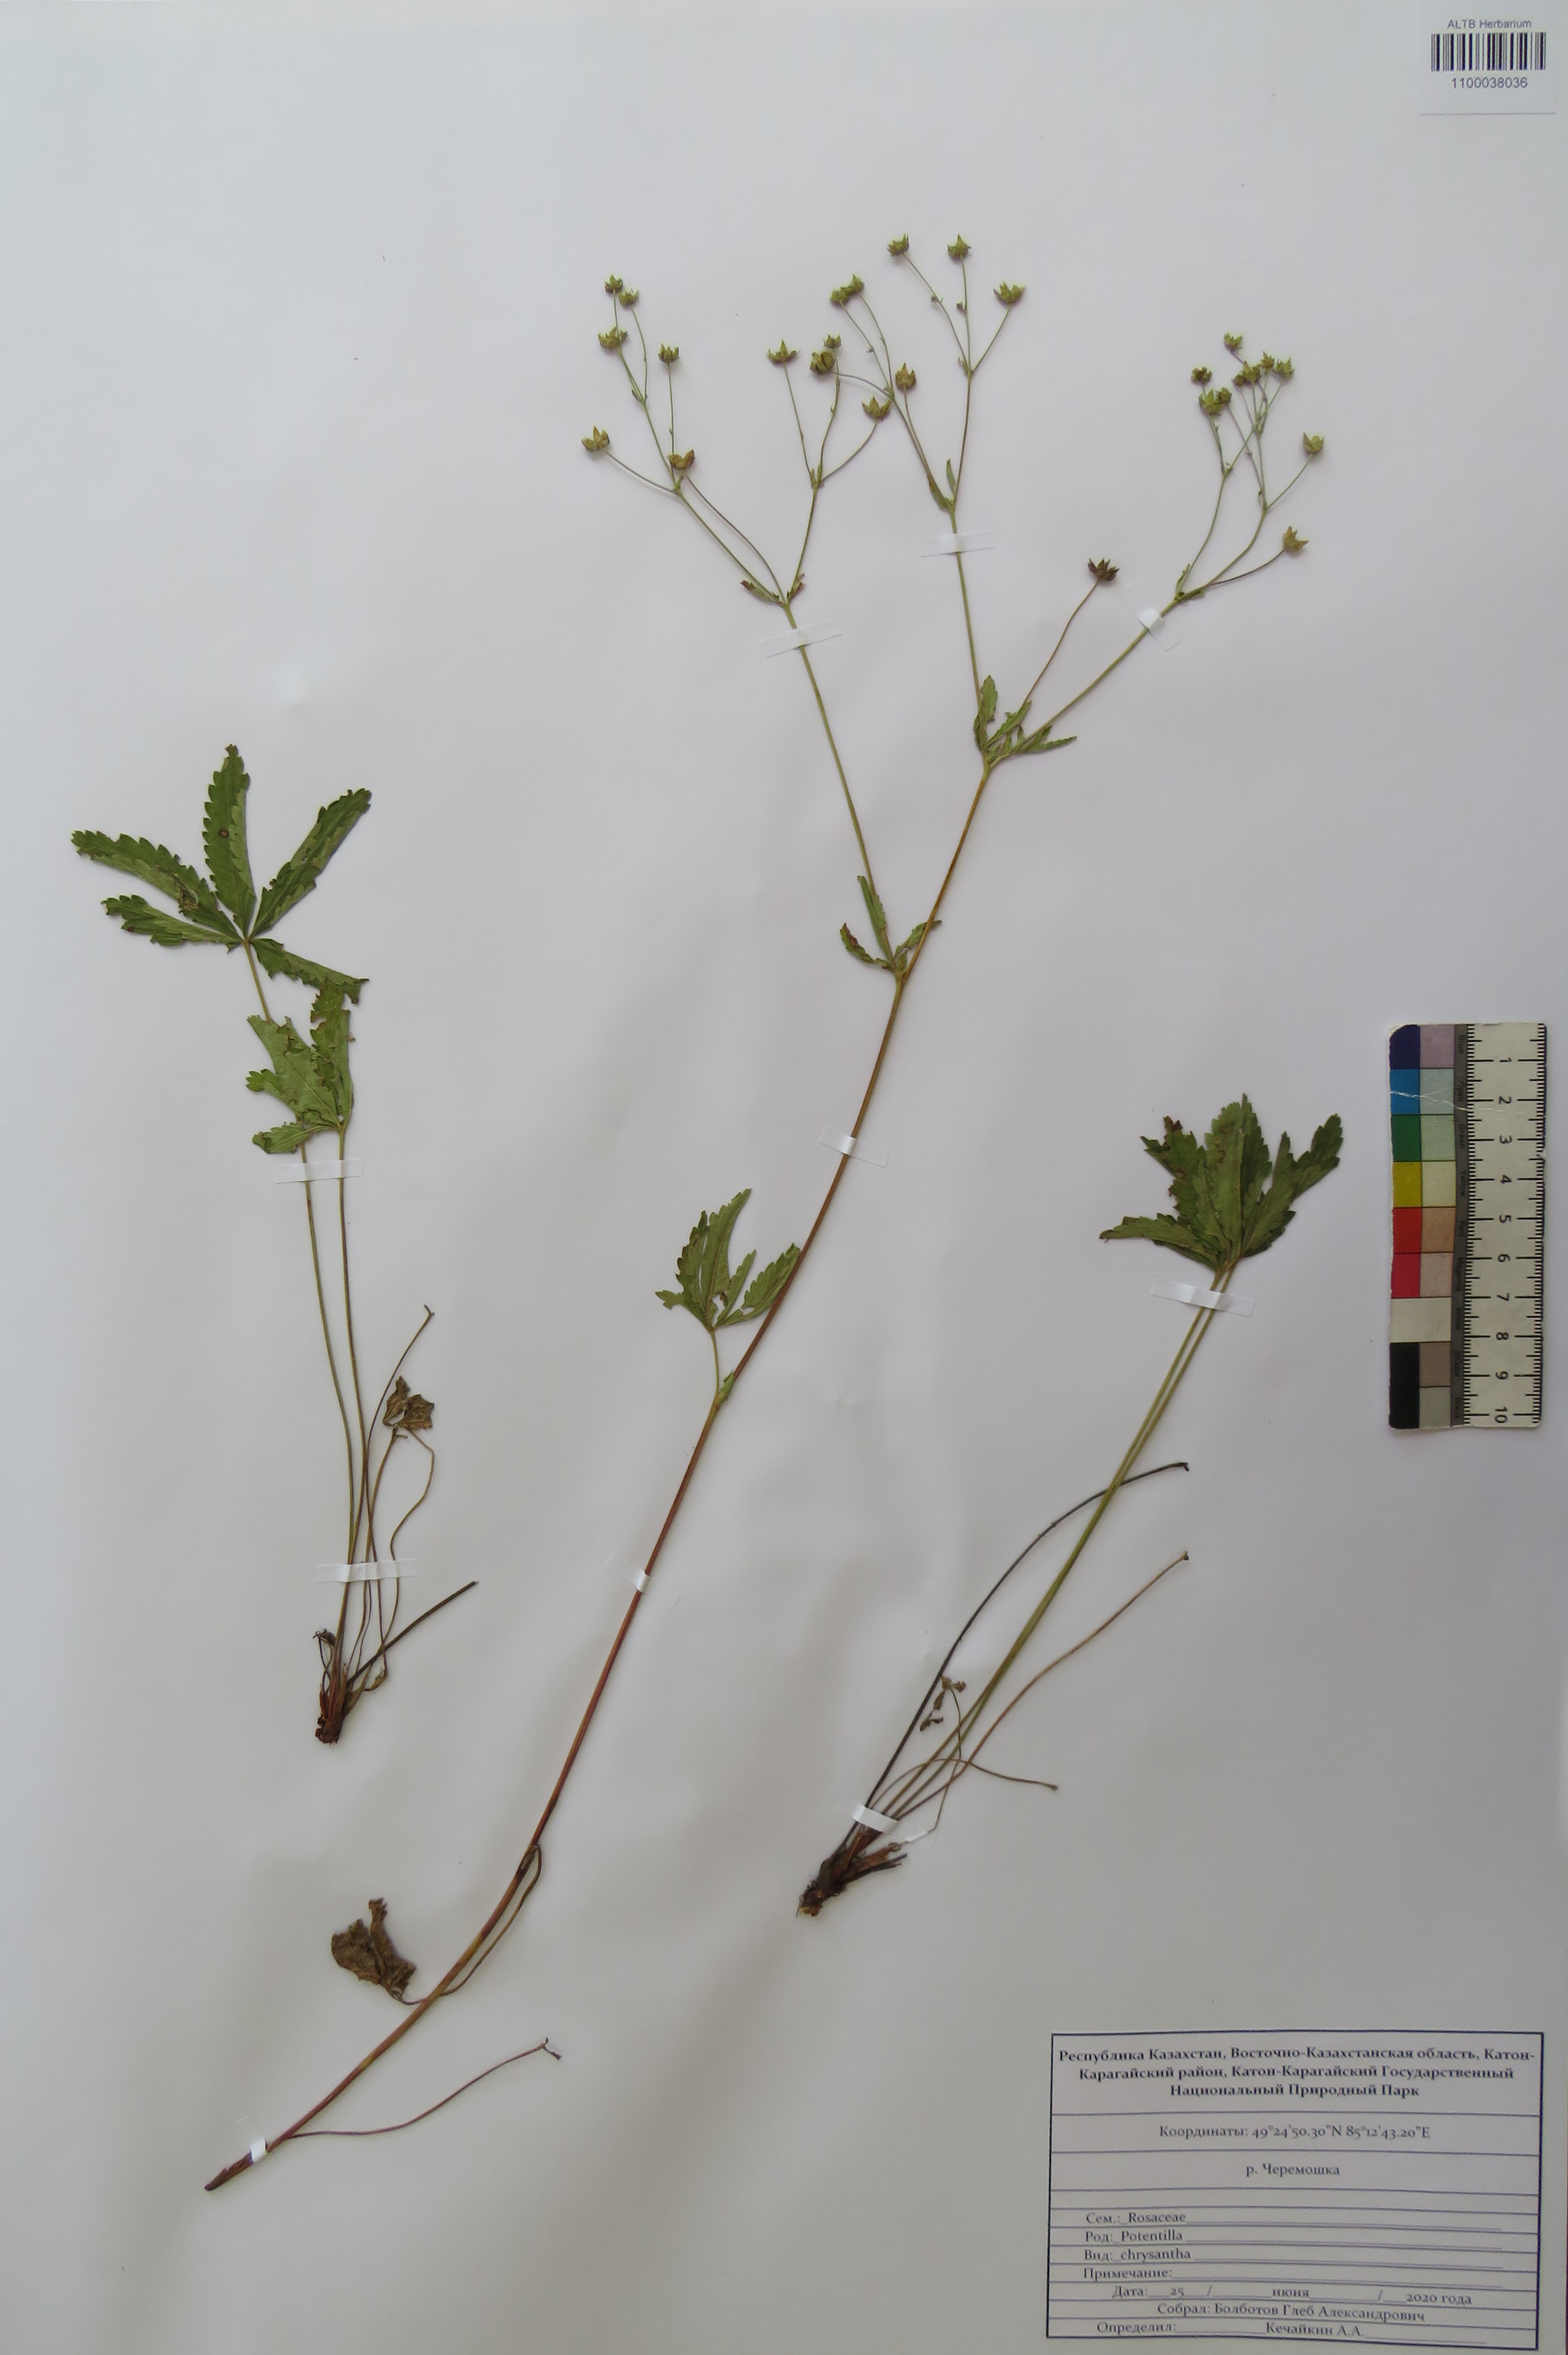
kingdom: Plantae
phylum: Tracheophyta
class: Magnoliopsida
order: Rosales
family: Rosaceae
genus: Potentilla
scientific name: Potentilla chrysantha
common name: Thuringian cinquefoil
